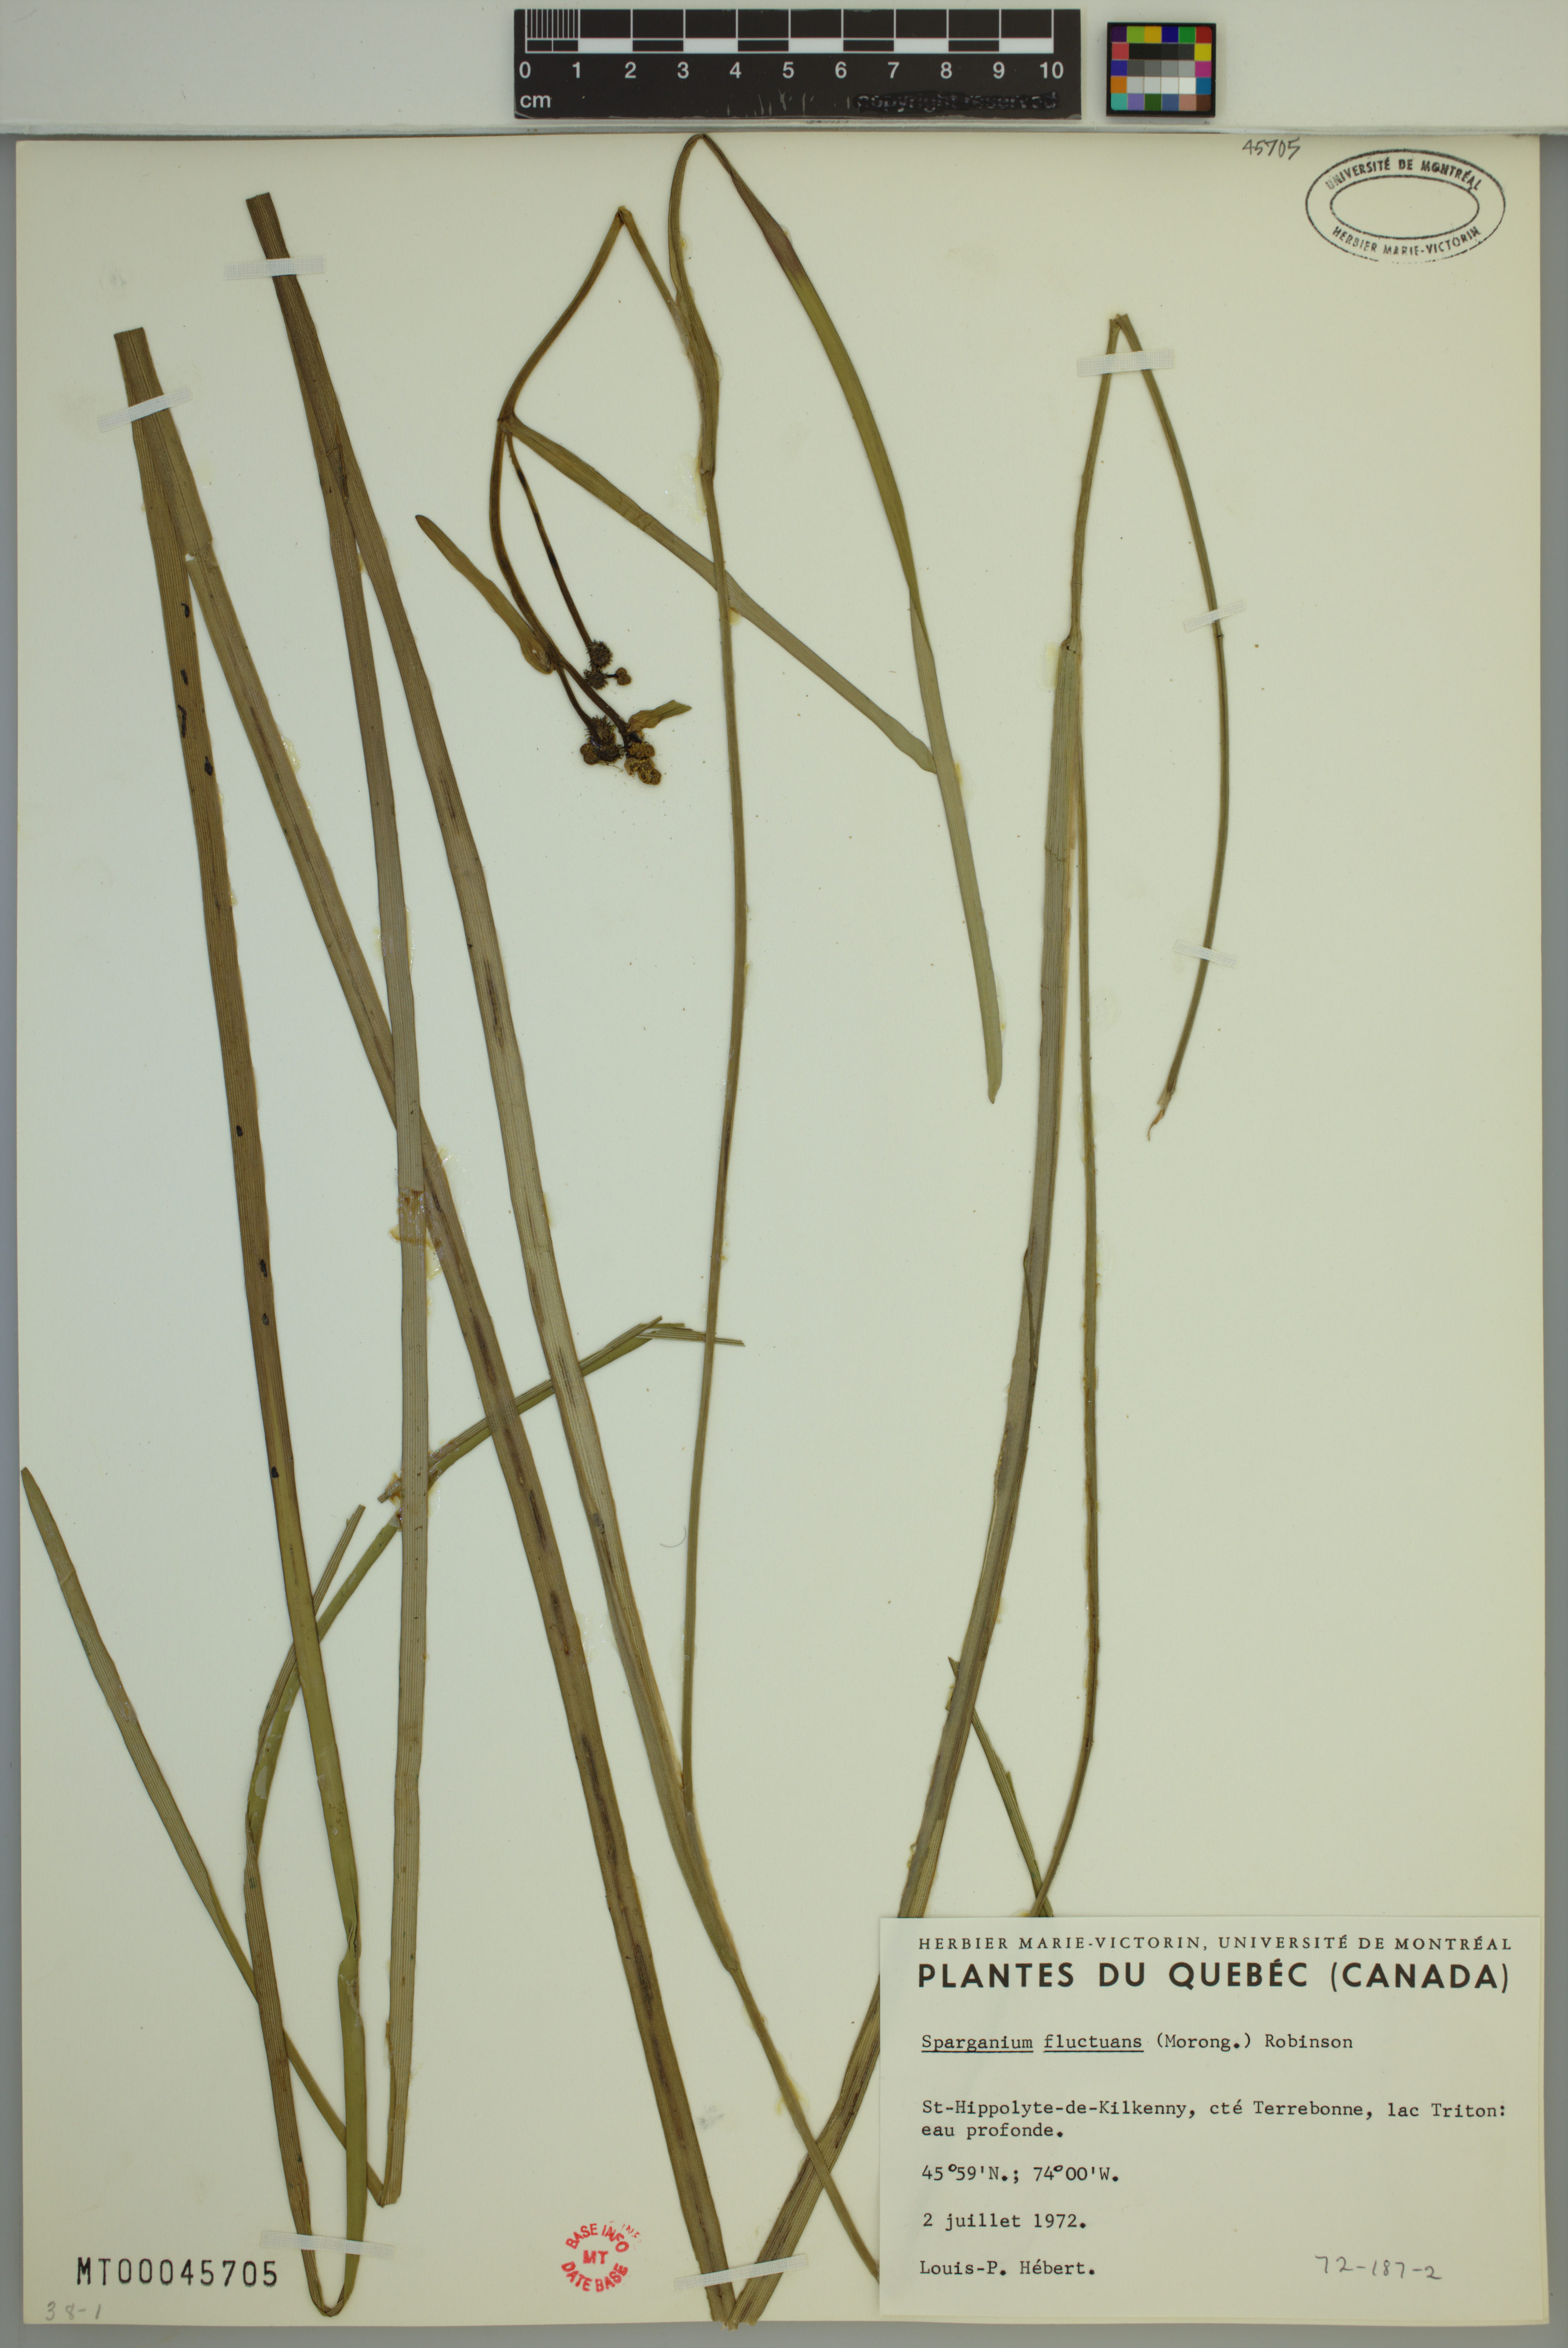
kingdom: Plantae
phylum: Tracheophyta
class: Liliopsida
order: Poales
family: Typhaceae
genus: Sparganium
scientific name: Sparganium fluctuans
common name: Floating burreed
